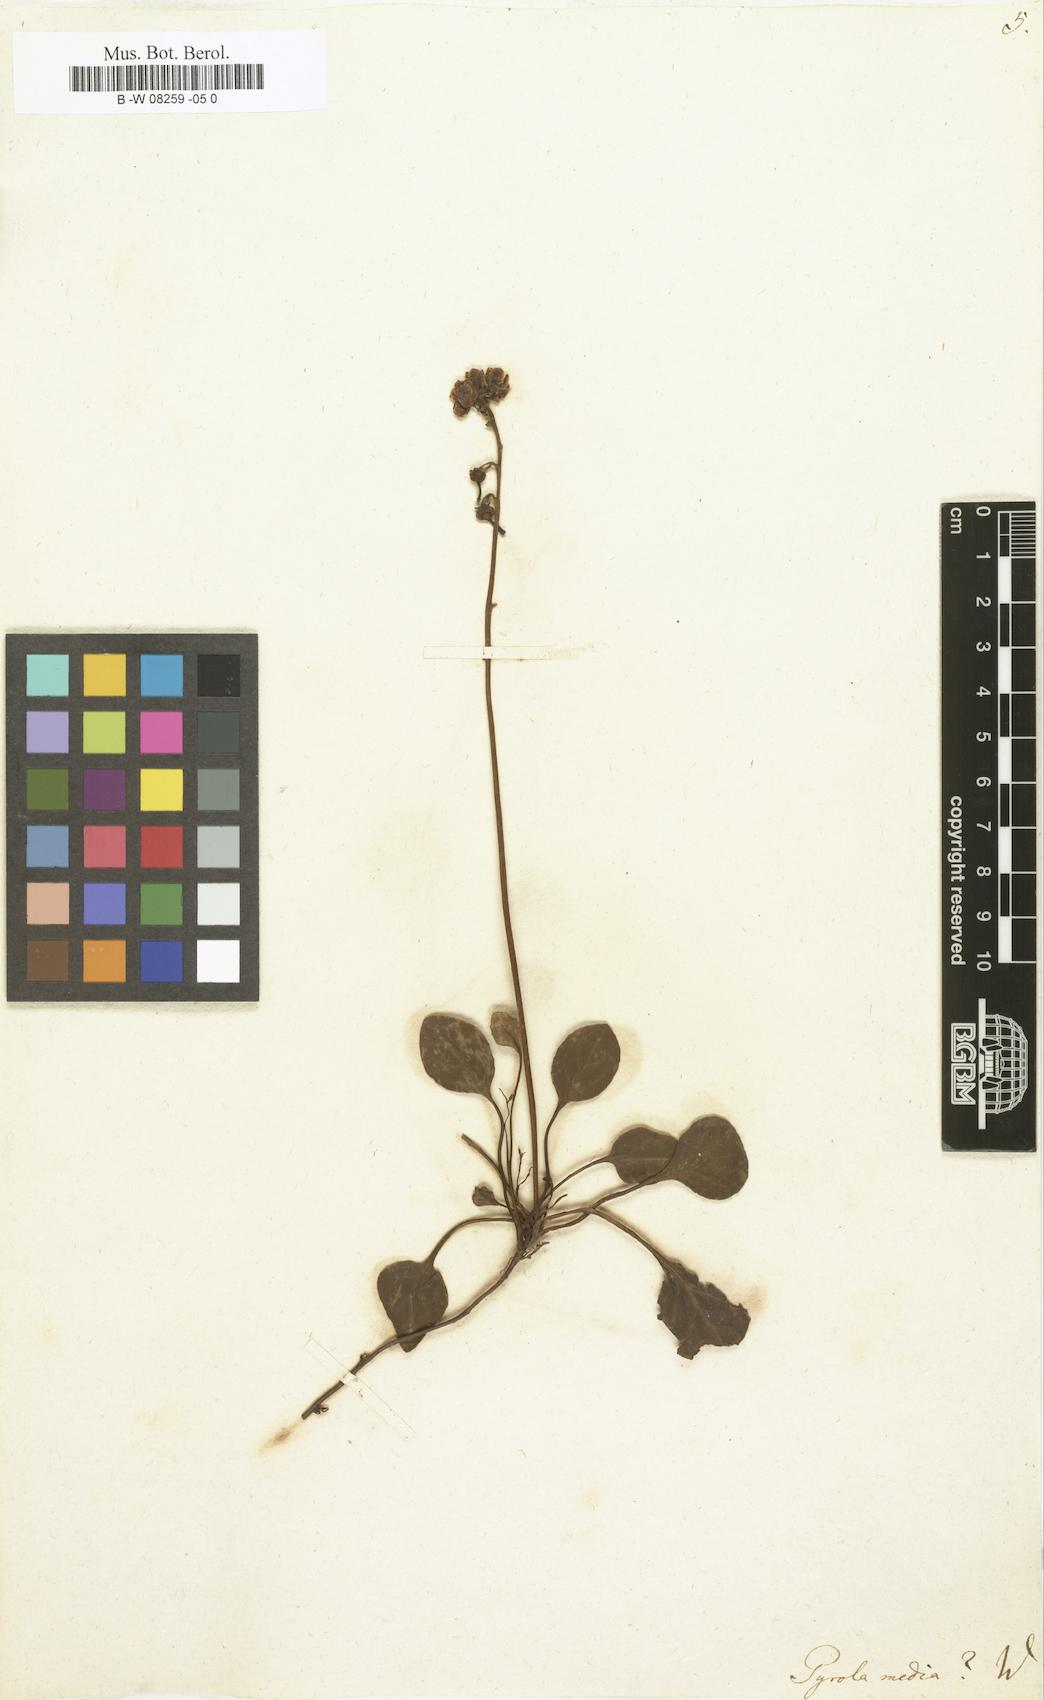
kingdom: Plantae
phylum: Tracheophyta
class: Magnoliopsida
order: Ericales
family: Ericaceae
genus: Pyrola
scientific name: Pyrola media
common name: Intermediate wintergreen
